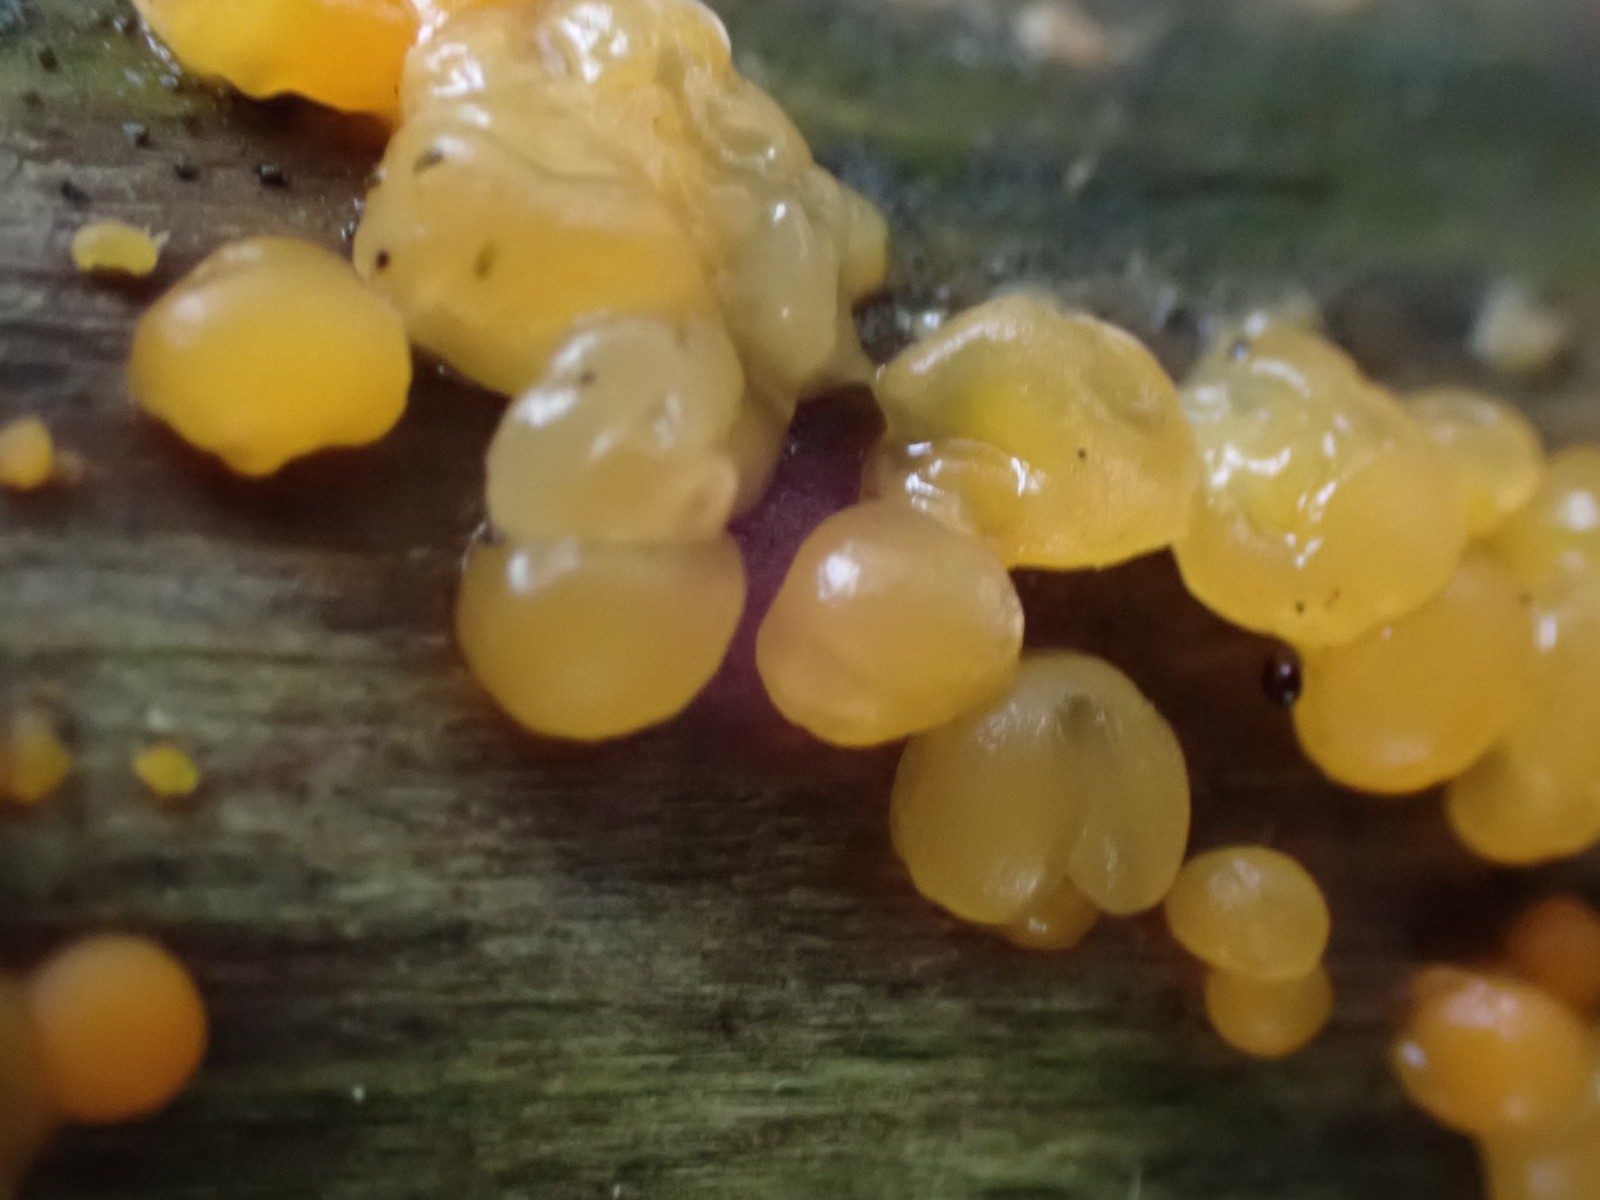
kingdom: Fungi
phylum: Basidiomycota
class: Dacrymycetes
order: Dacrymycetales
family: Dacrymycetaceae
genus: Dacrymyces
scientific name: Dacrymyces
